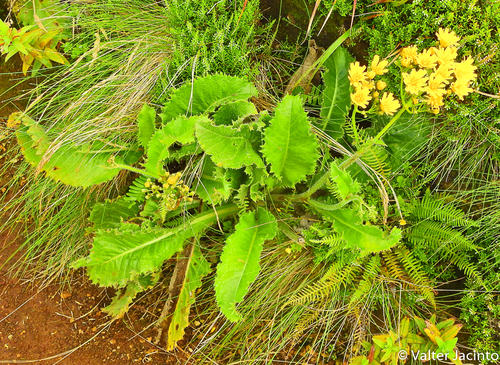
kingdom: Plantae
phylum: Tracheophyta
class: Magnoliopsida
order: Asterales
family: Asteraceae
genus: Leontodon
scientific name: Leontodon rigens
